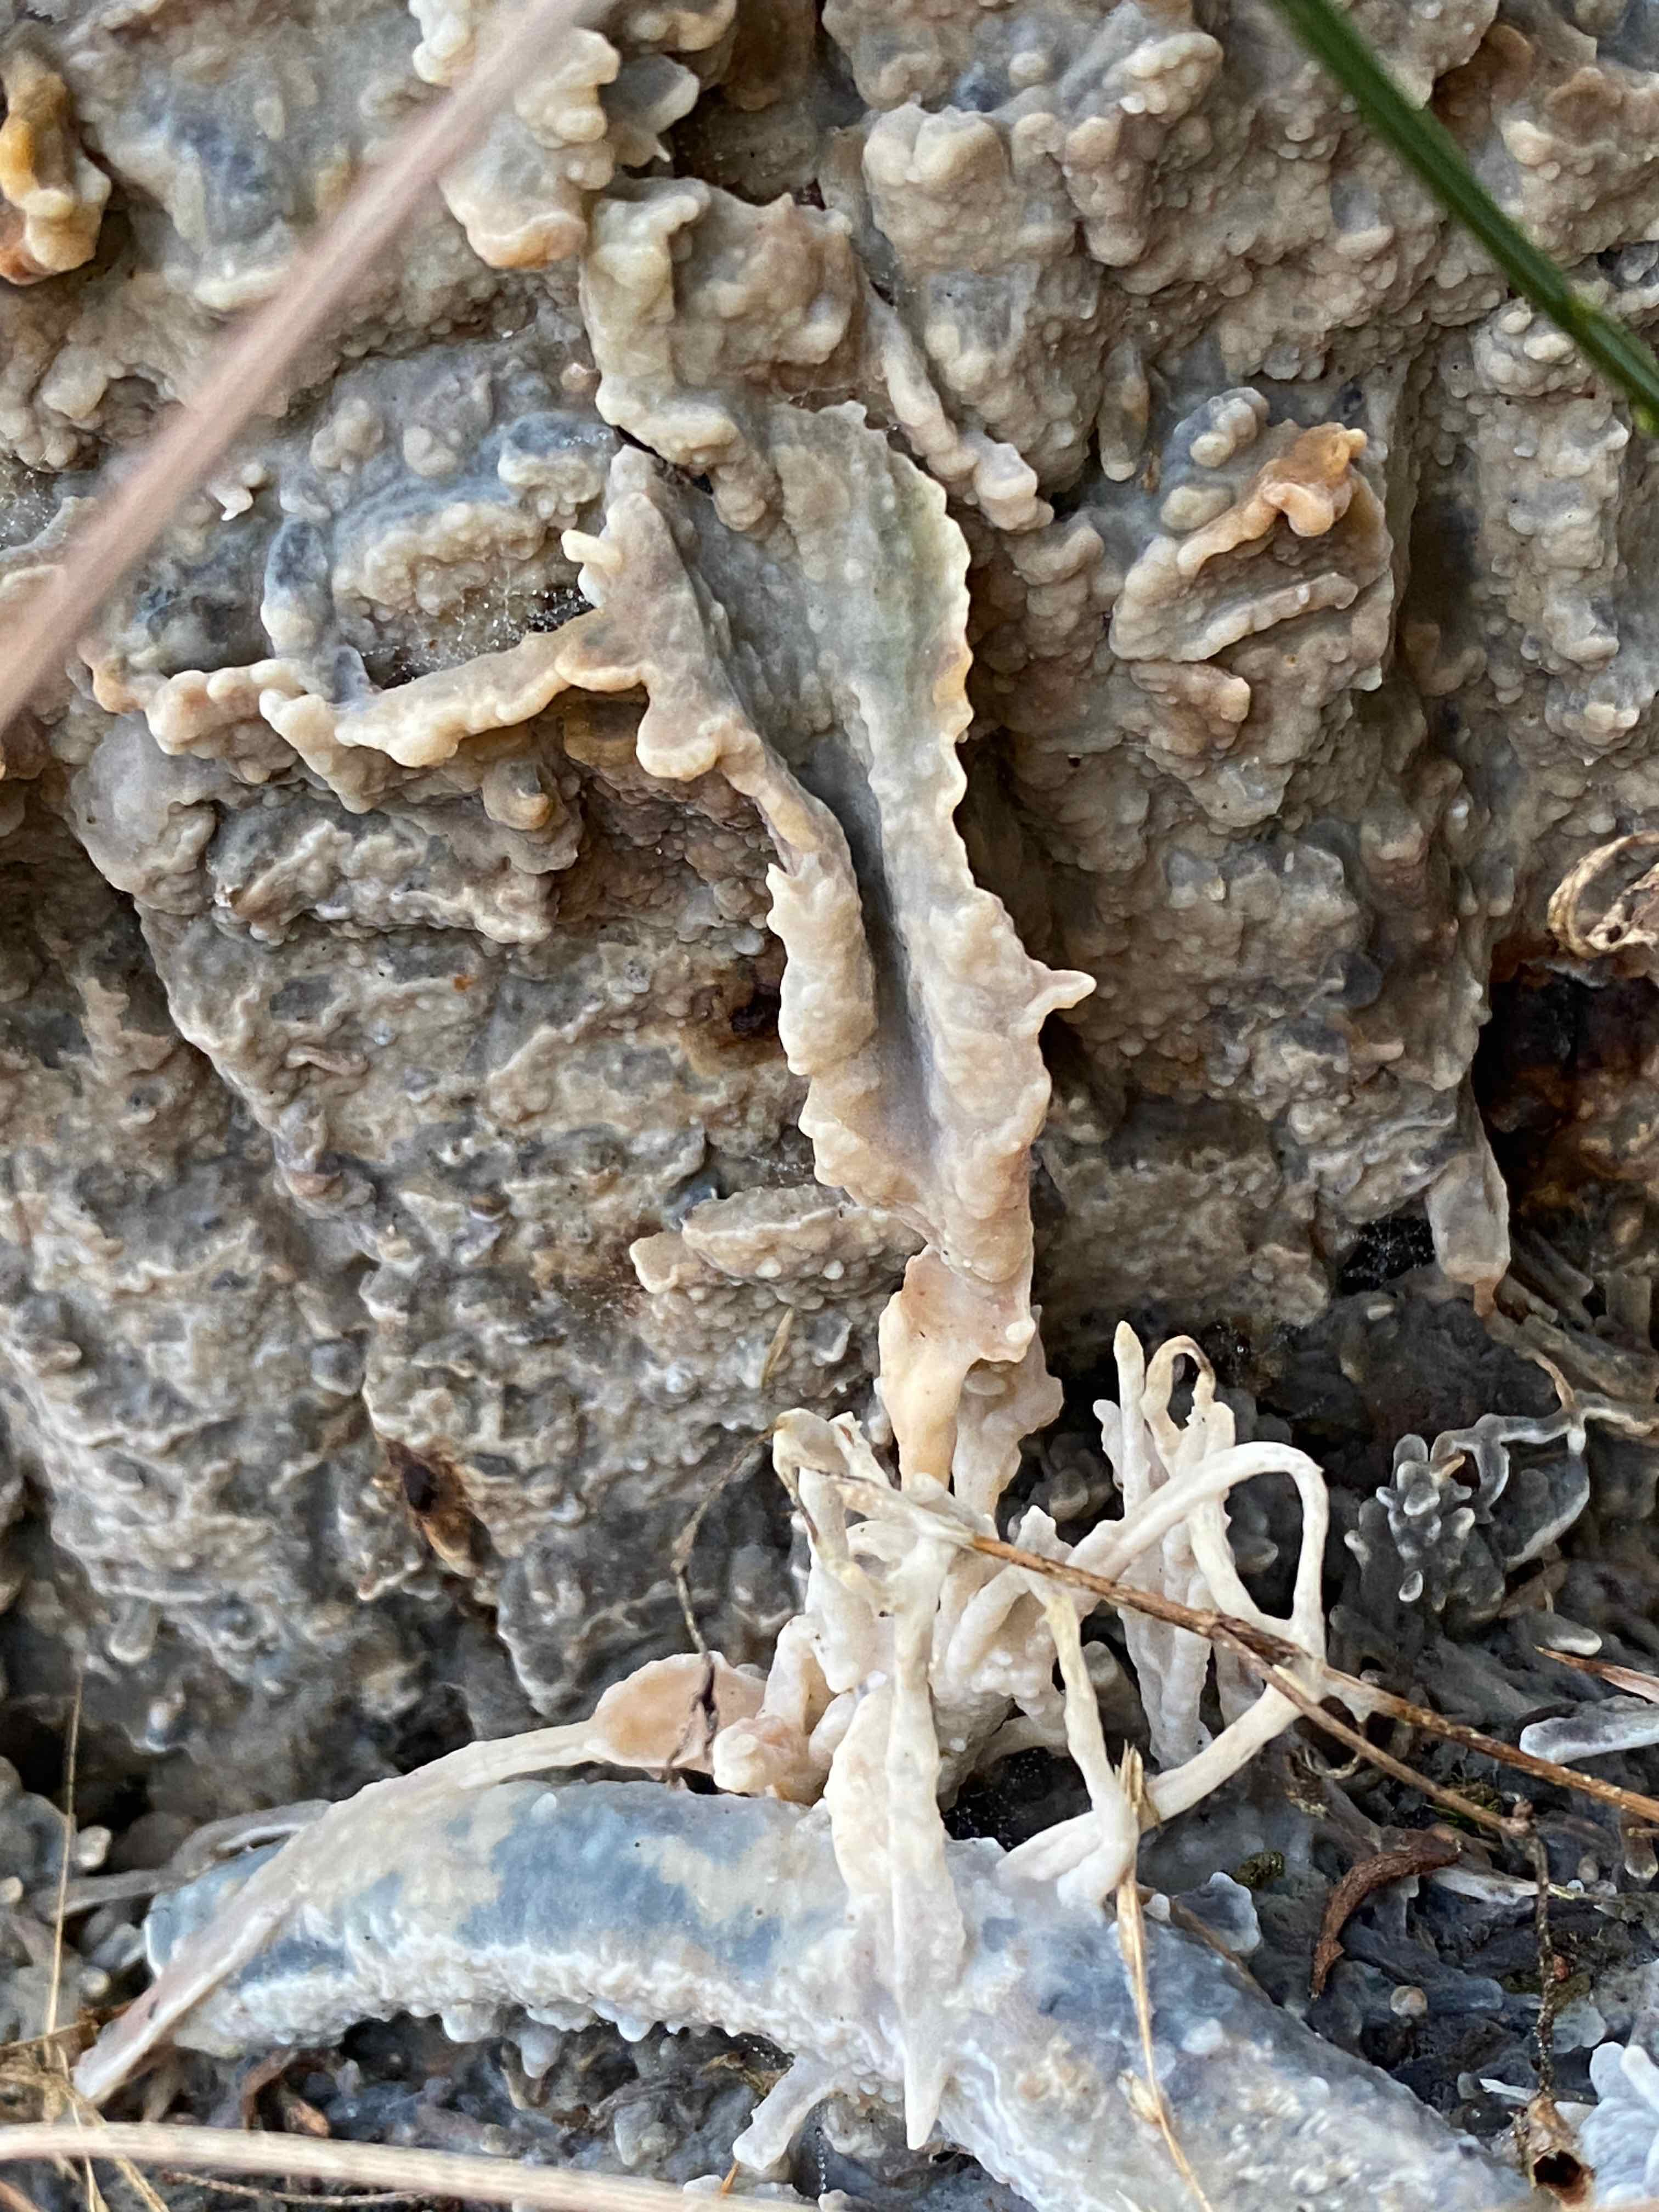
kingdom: Fungi
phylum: Basidiomycota
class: Agaricomycetes
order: Polyporales
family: Phanerochaetaceae
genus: Phlebiopsis
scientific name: Phlebiopsis gigantea
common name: kæmpebarksvamp
